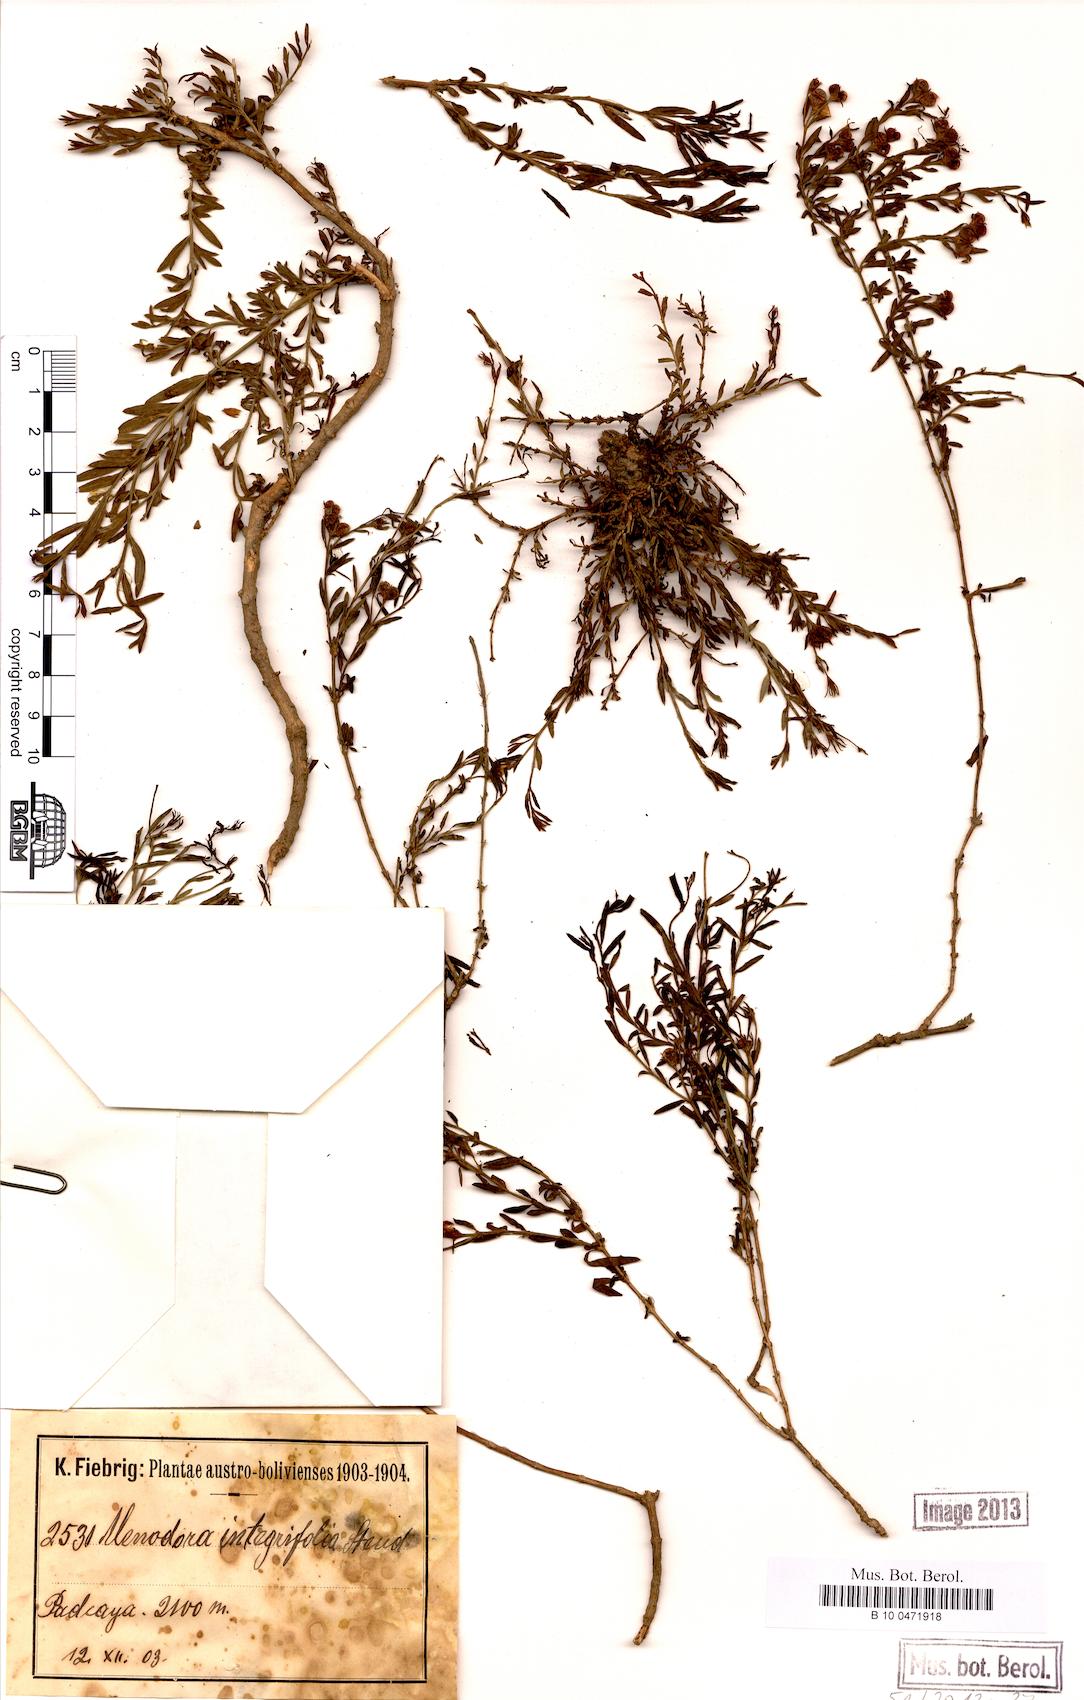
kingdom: Plantae
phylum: Tracheophyta
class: Magnoliopsida
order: Lamiales
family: Oleaceae
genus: Menodora
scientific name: Menodora integrifolia
